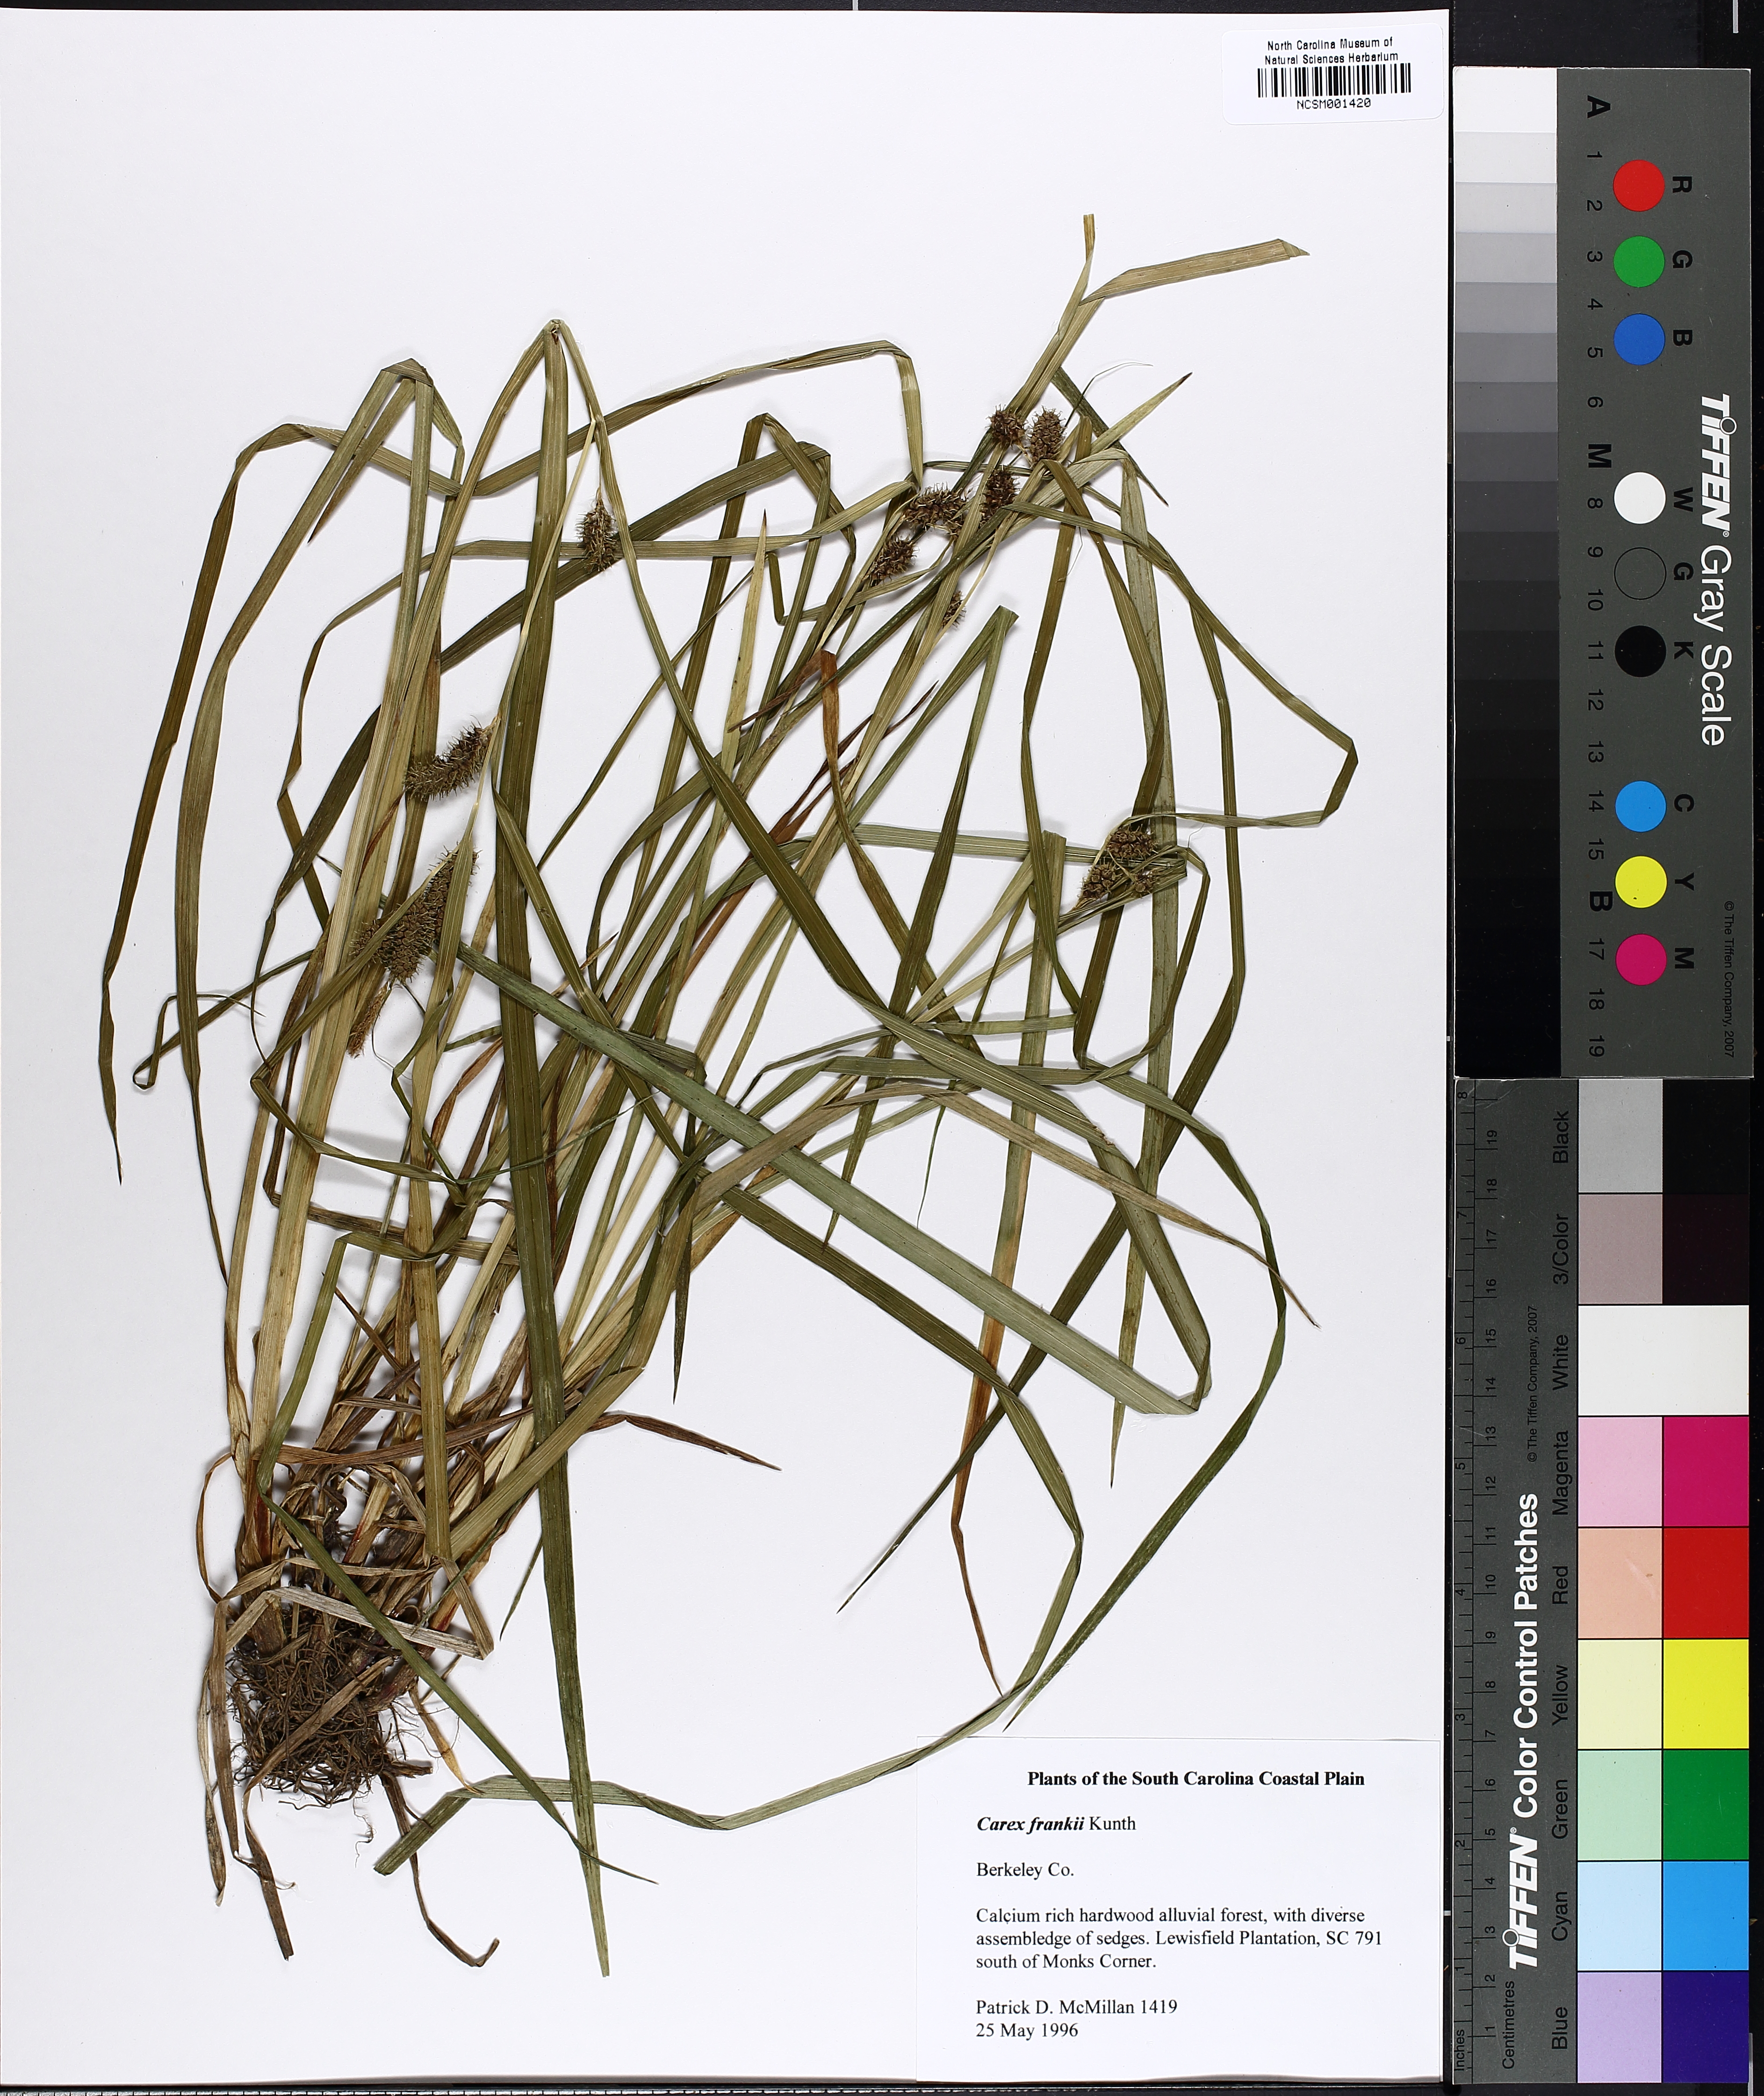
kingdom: Plantae
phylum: Tracheophyta
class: Liliopsida
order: Poales
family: Cyperaceae
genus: Carex
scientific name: Carex frankii
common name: Frank's sedge
